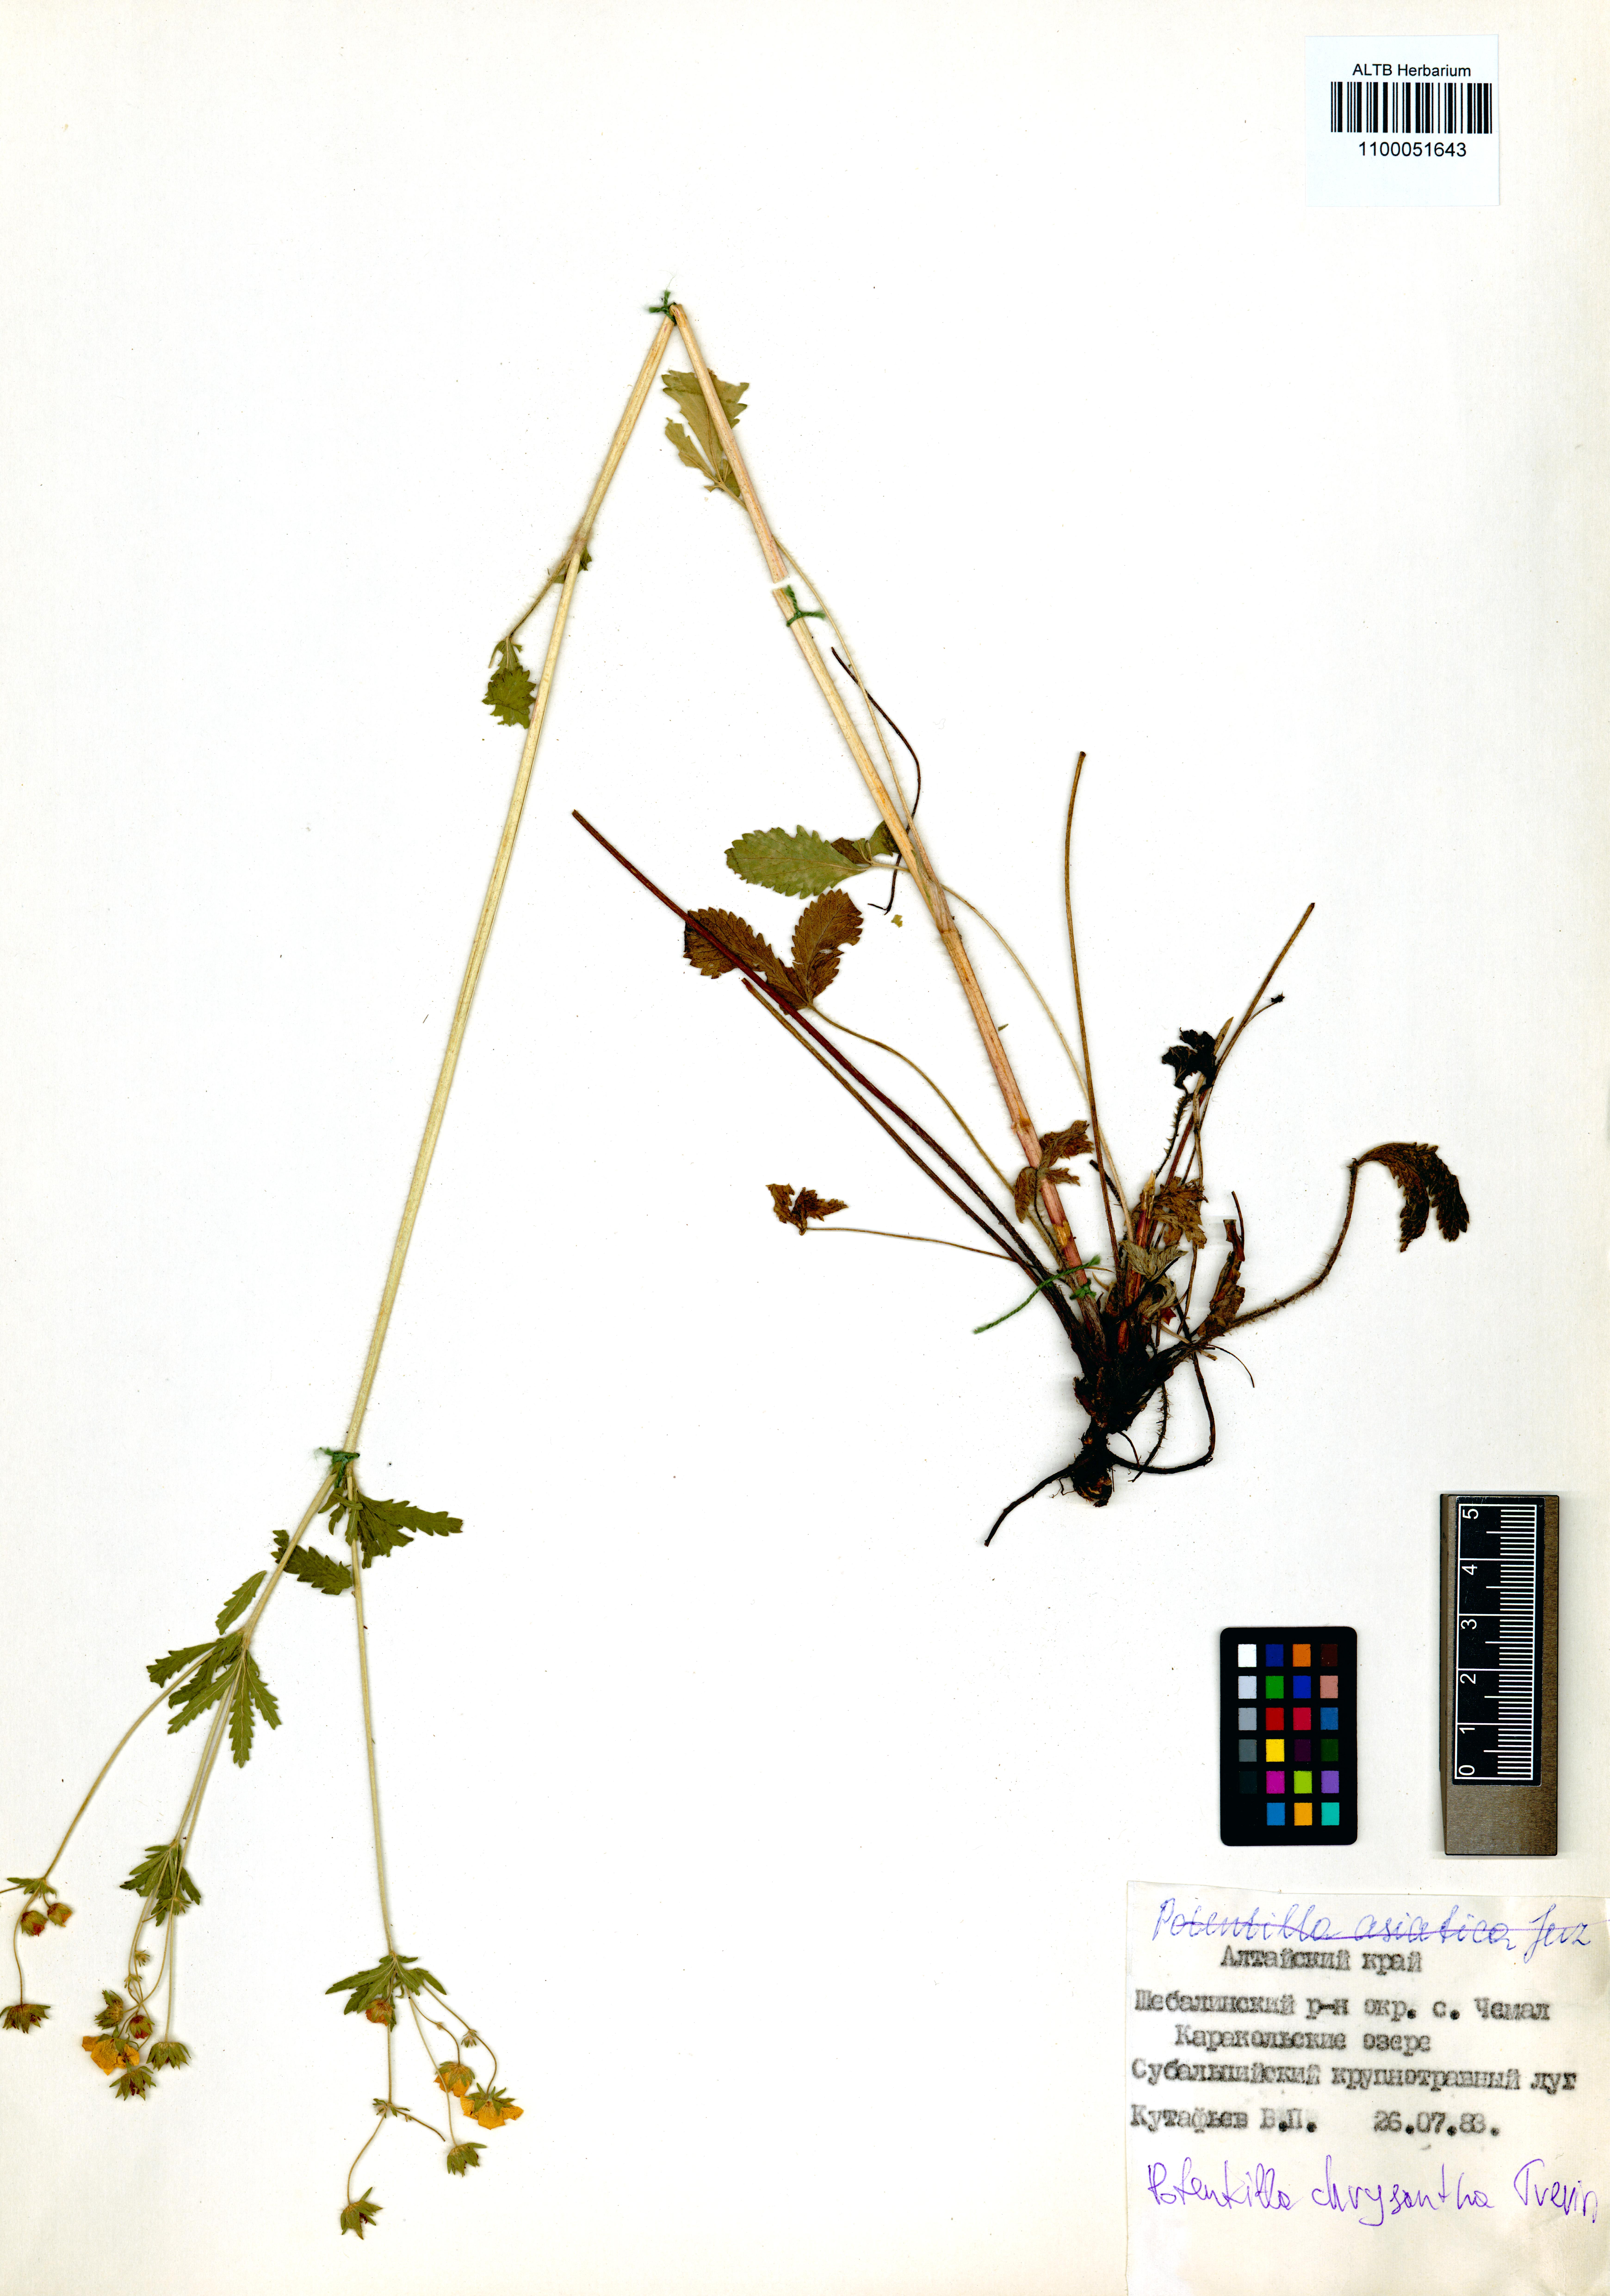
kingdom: Plantae
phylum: Tracheophyta
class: Magnoliopsida
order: Rosales
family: Rosaceae
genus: Potentilla
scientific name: Potentilla chrysantha
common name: Thuringian cinquefoil
